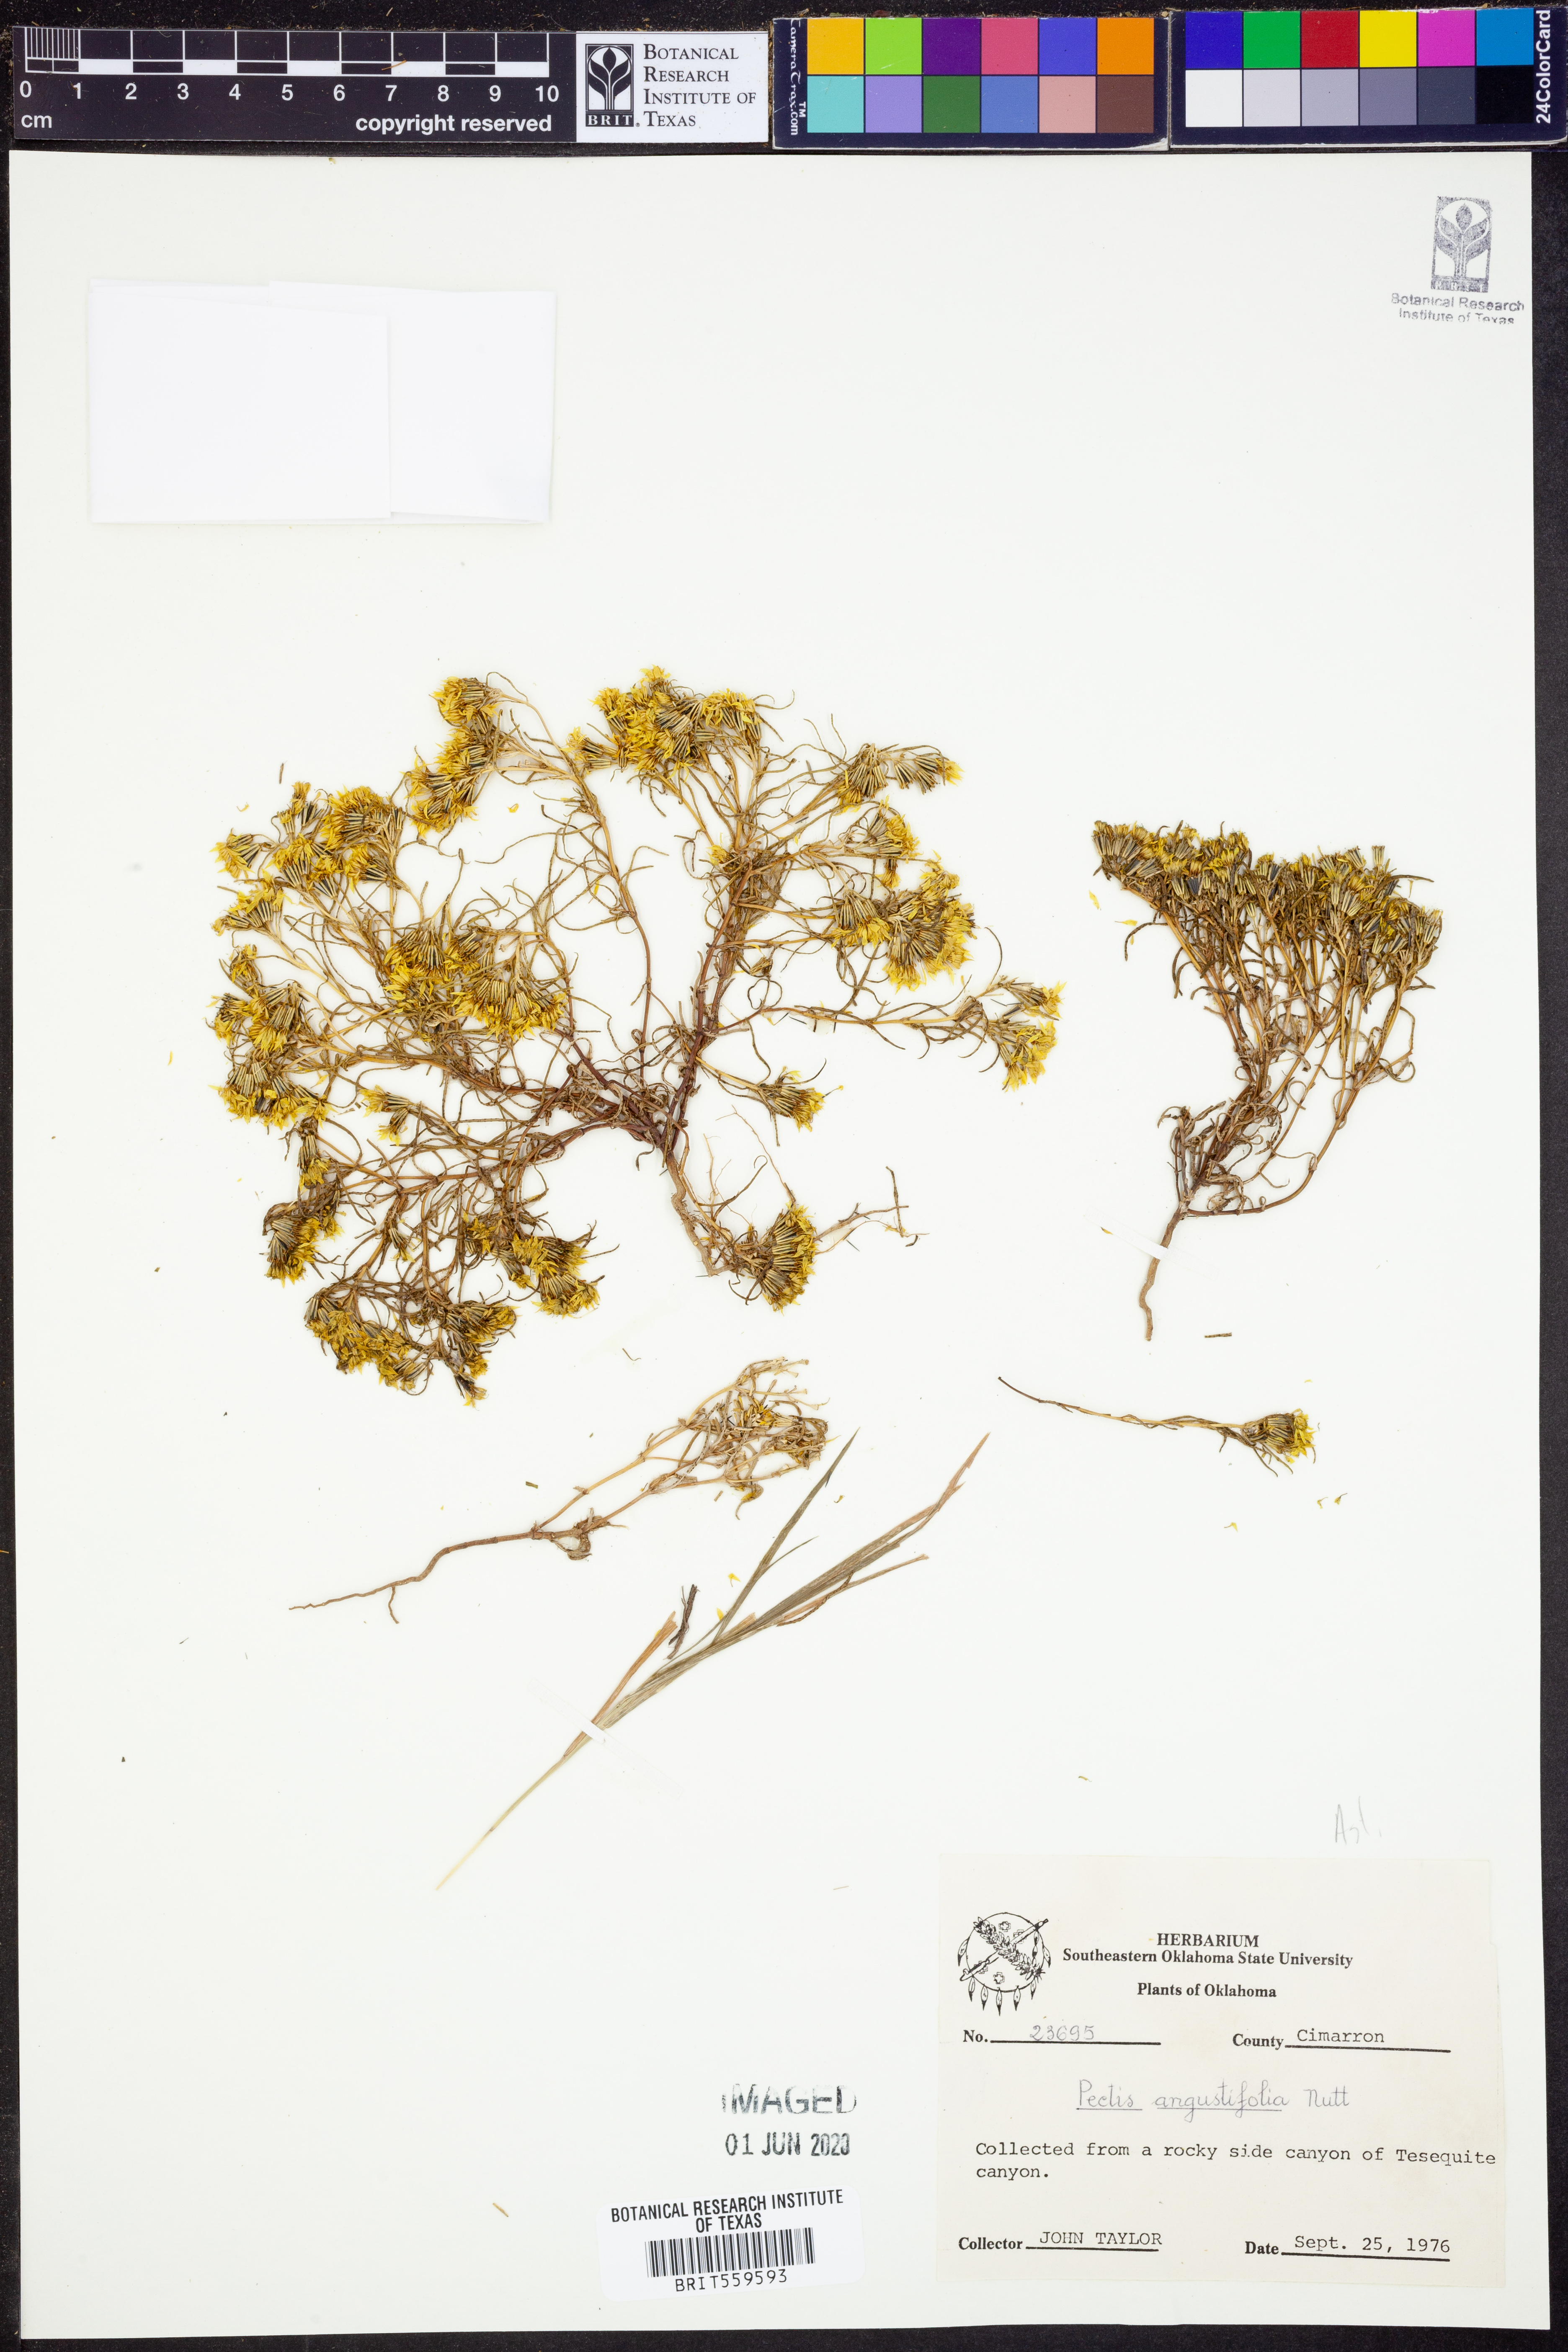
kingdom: Plantae
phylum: Tracheophyta
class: Magnoliopsida
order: Asterales
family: Asteraceae
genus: Pectis
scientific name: Pectis angustifolia
